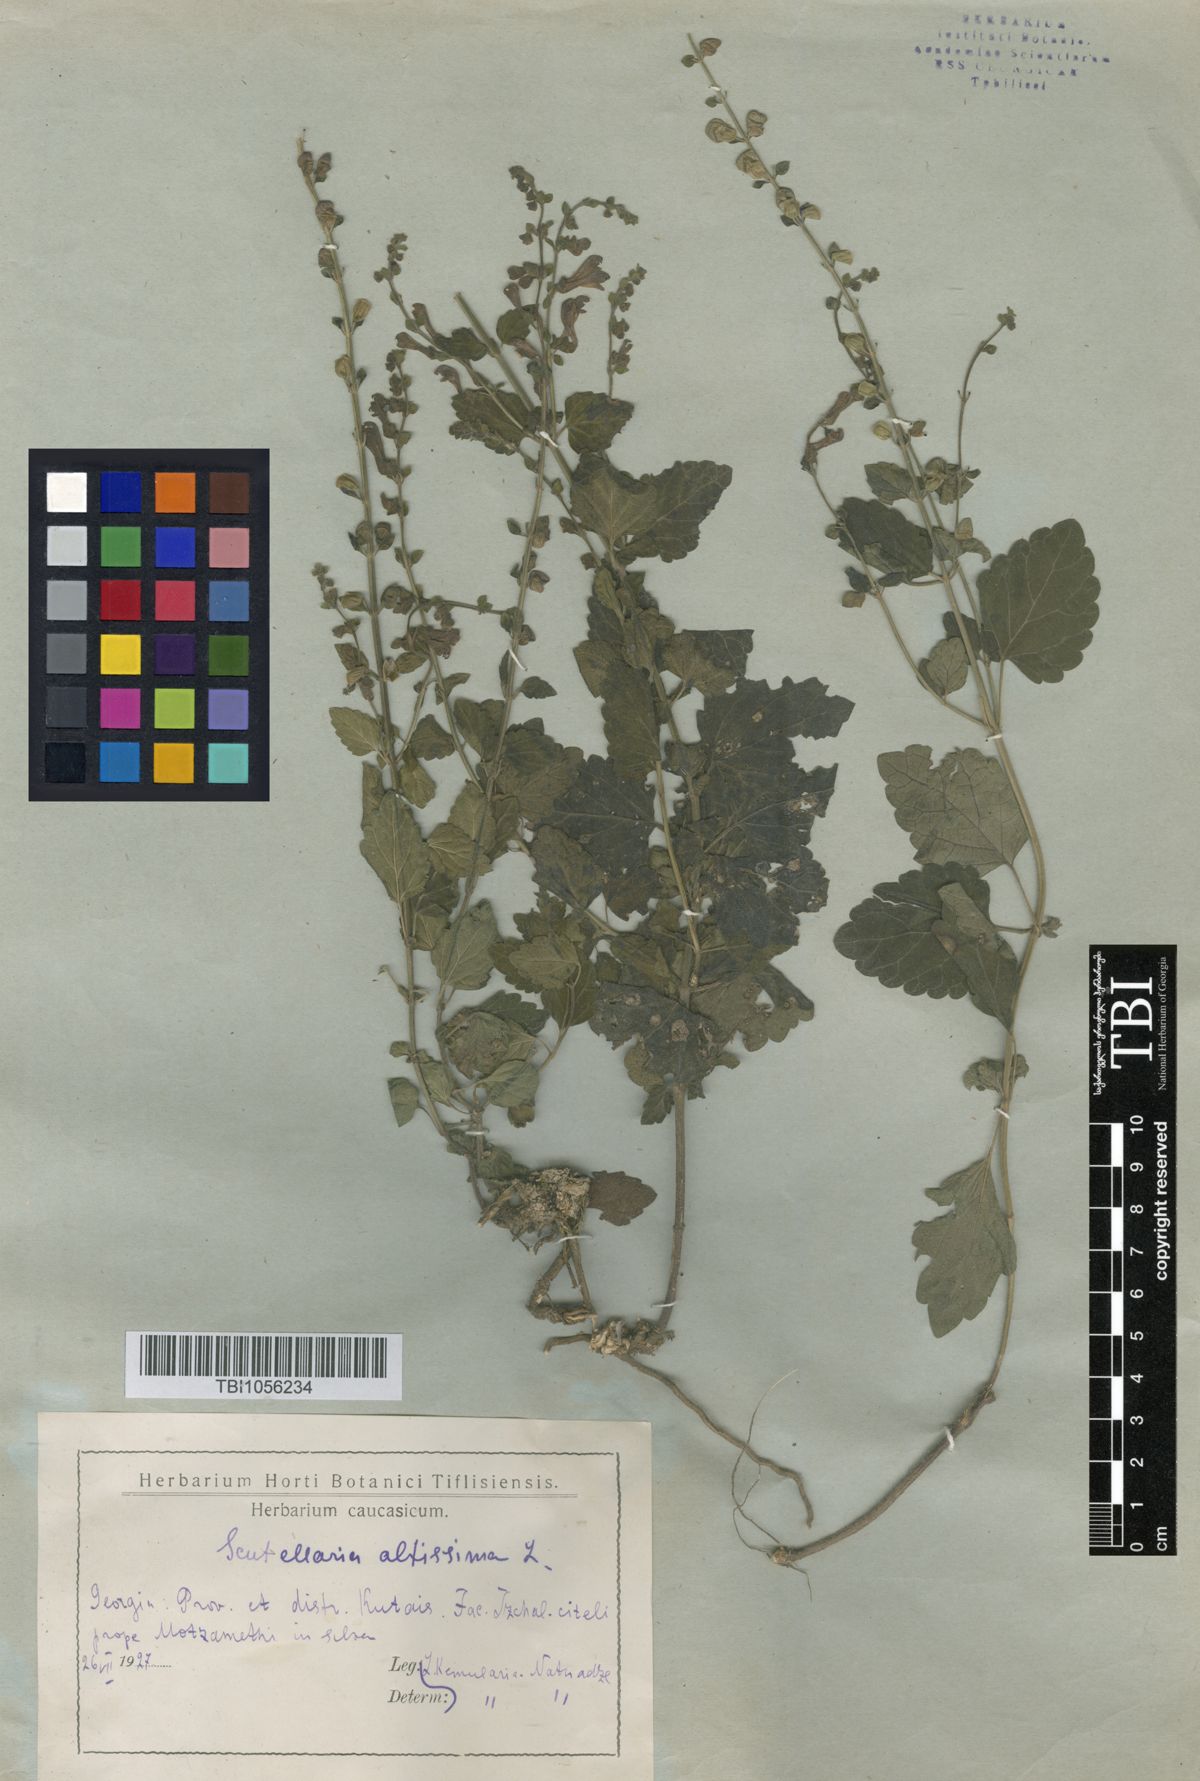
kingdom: Plantae
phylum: Tracheophyta
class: Magnoliopsida
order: Lamiales
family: Lamiaceae
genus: Scutellaria
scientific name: Scutellaria altissima
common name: Somerset skullcap
